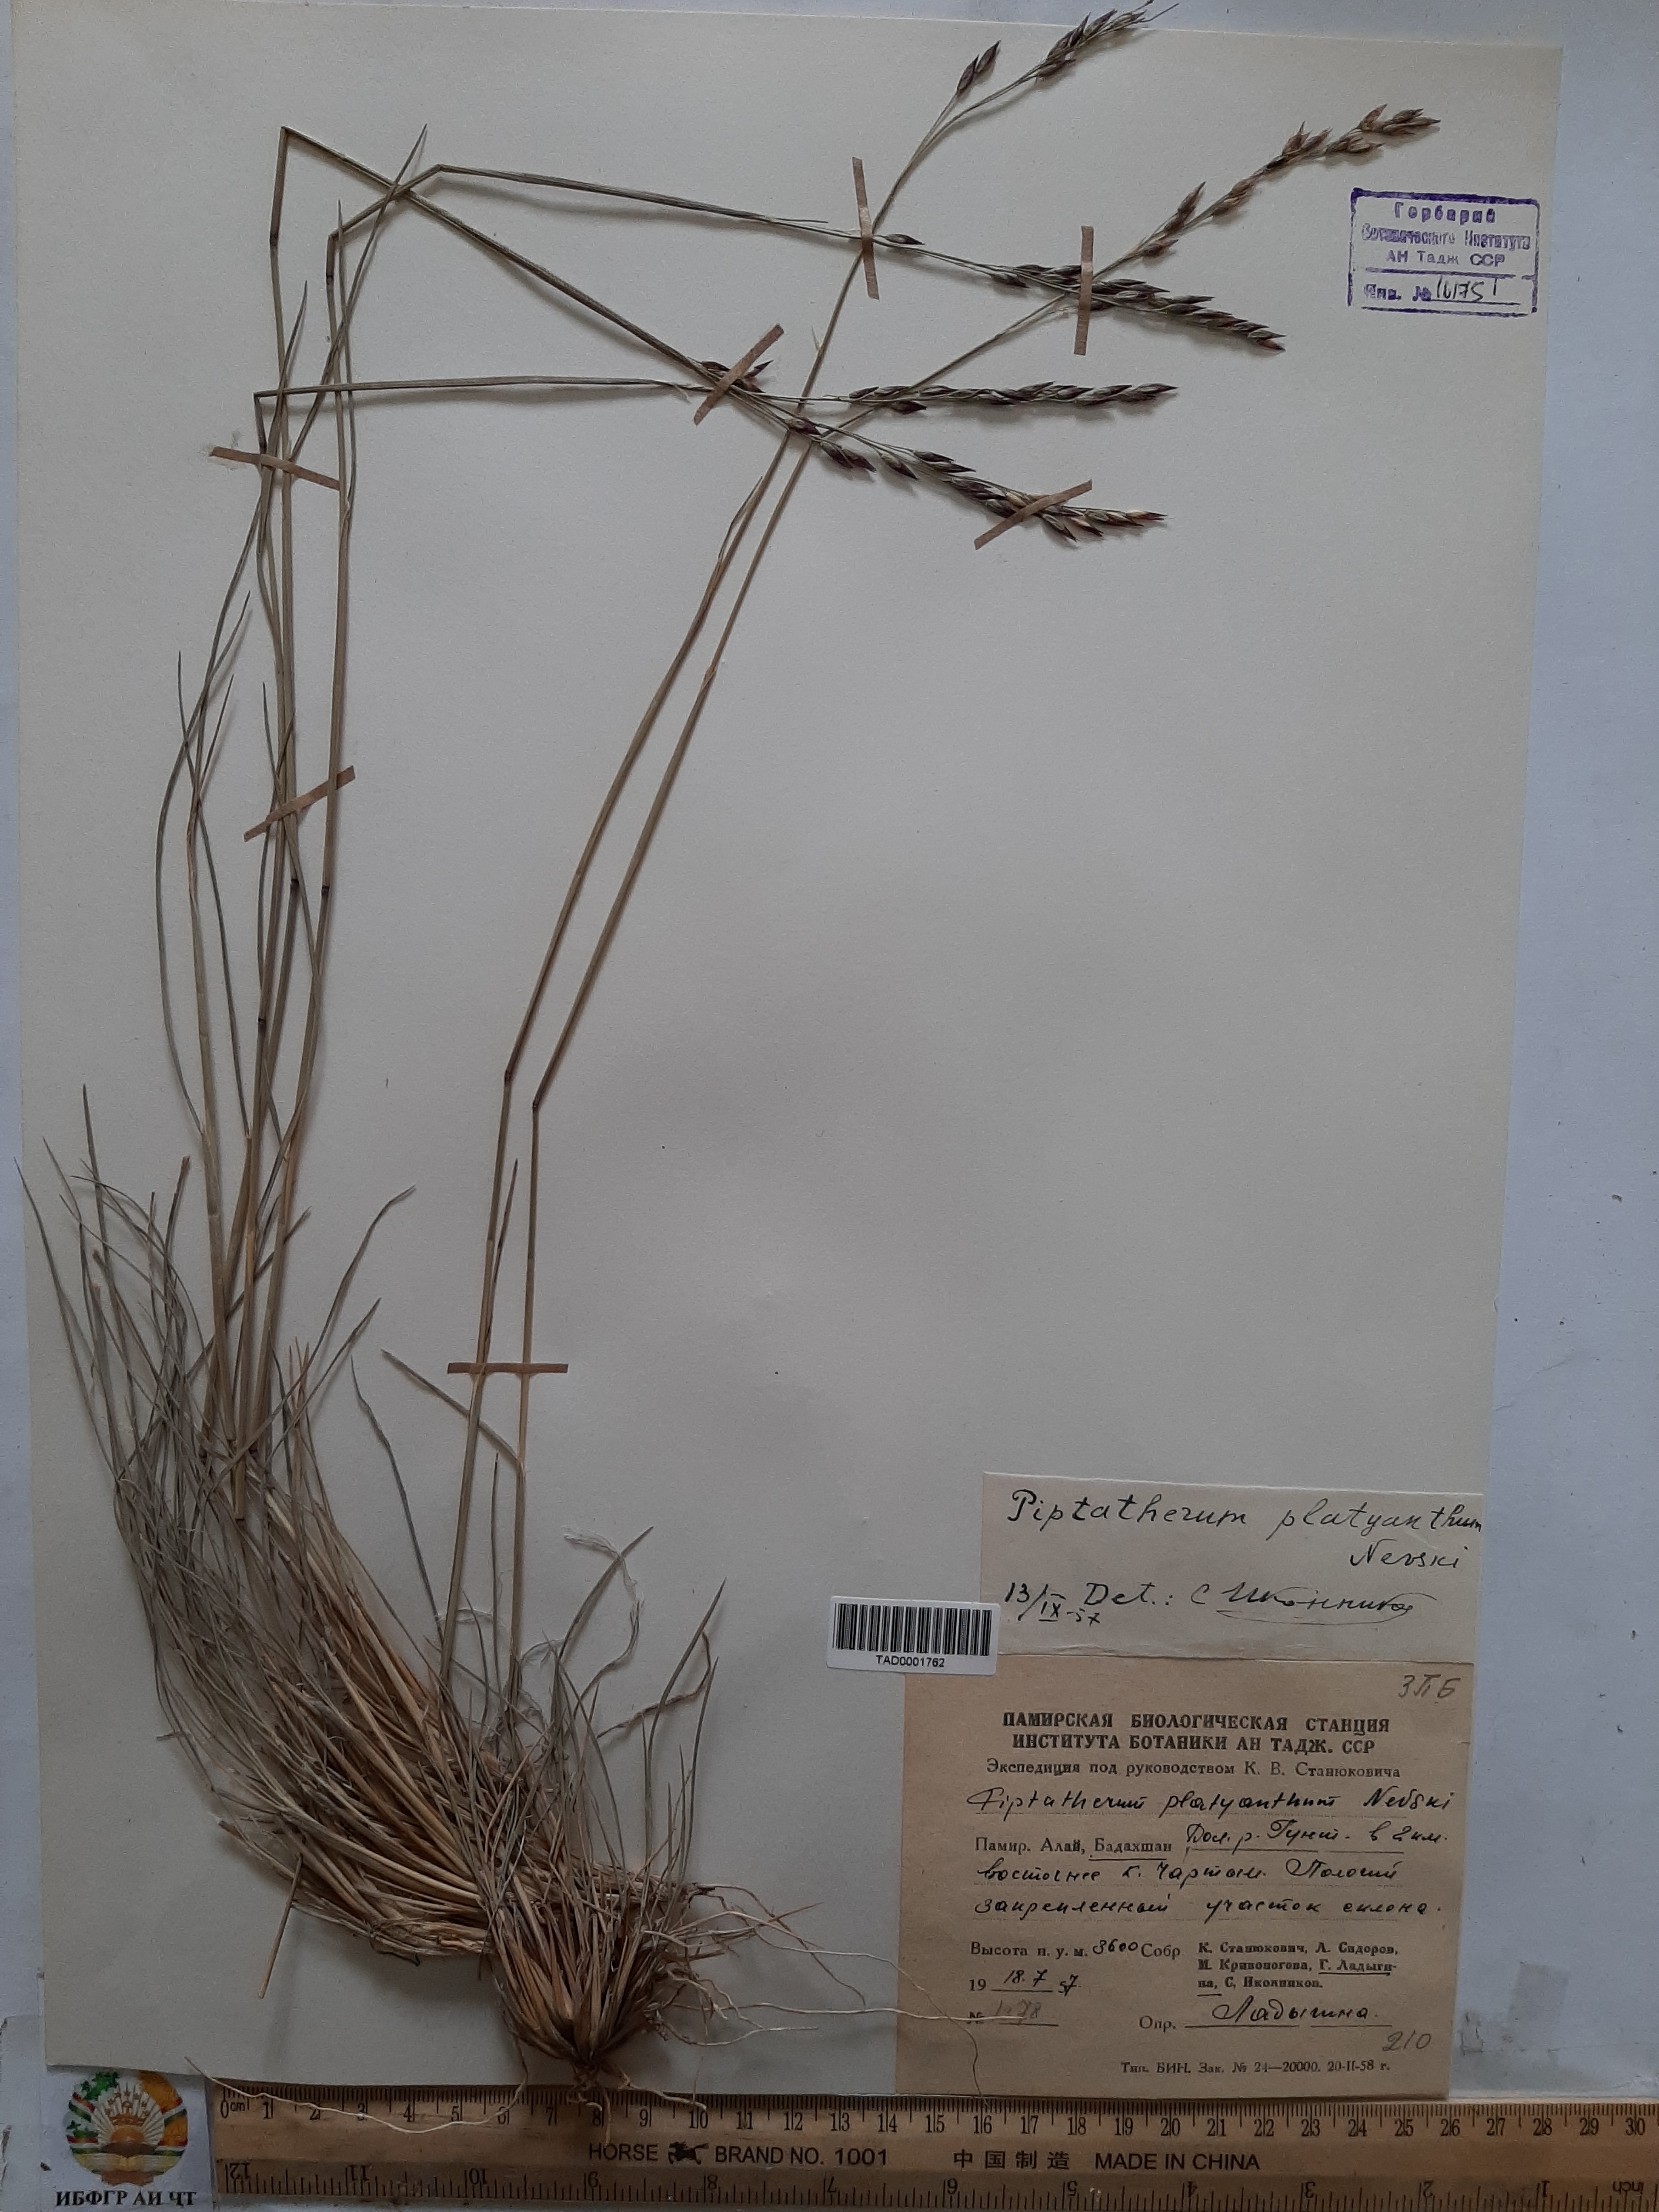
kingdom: Plantae
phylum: Tracheophyta
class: Liliopsida
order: Poales
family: Poaceae
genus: Piptatherum
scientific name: Piptatherum platyanthum
